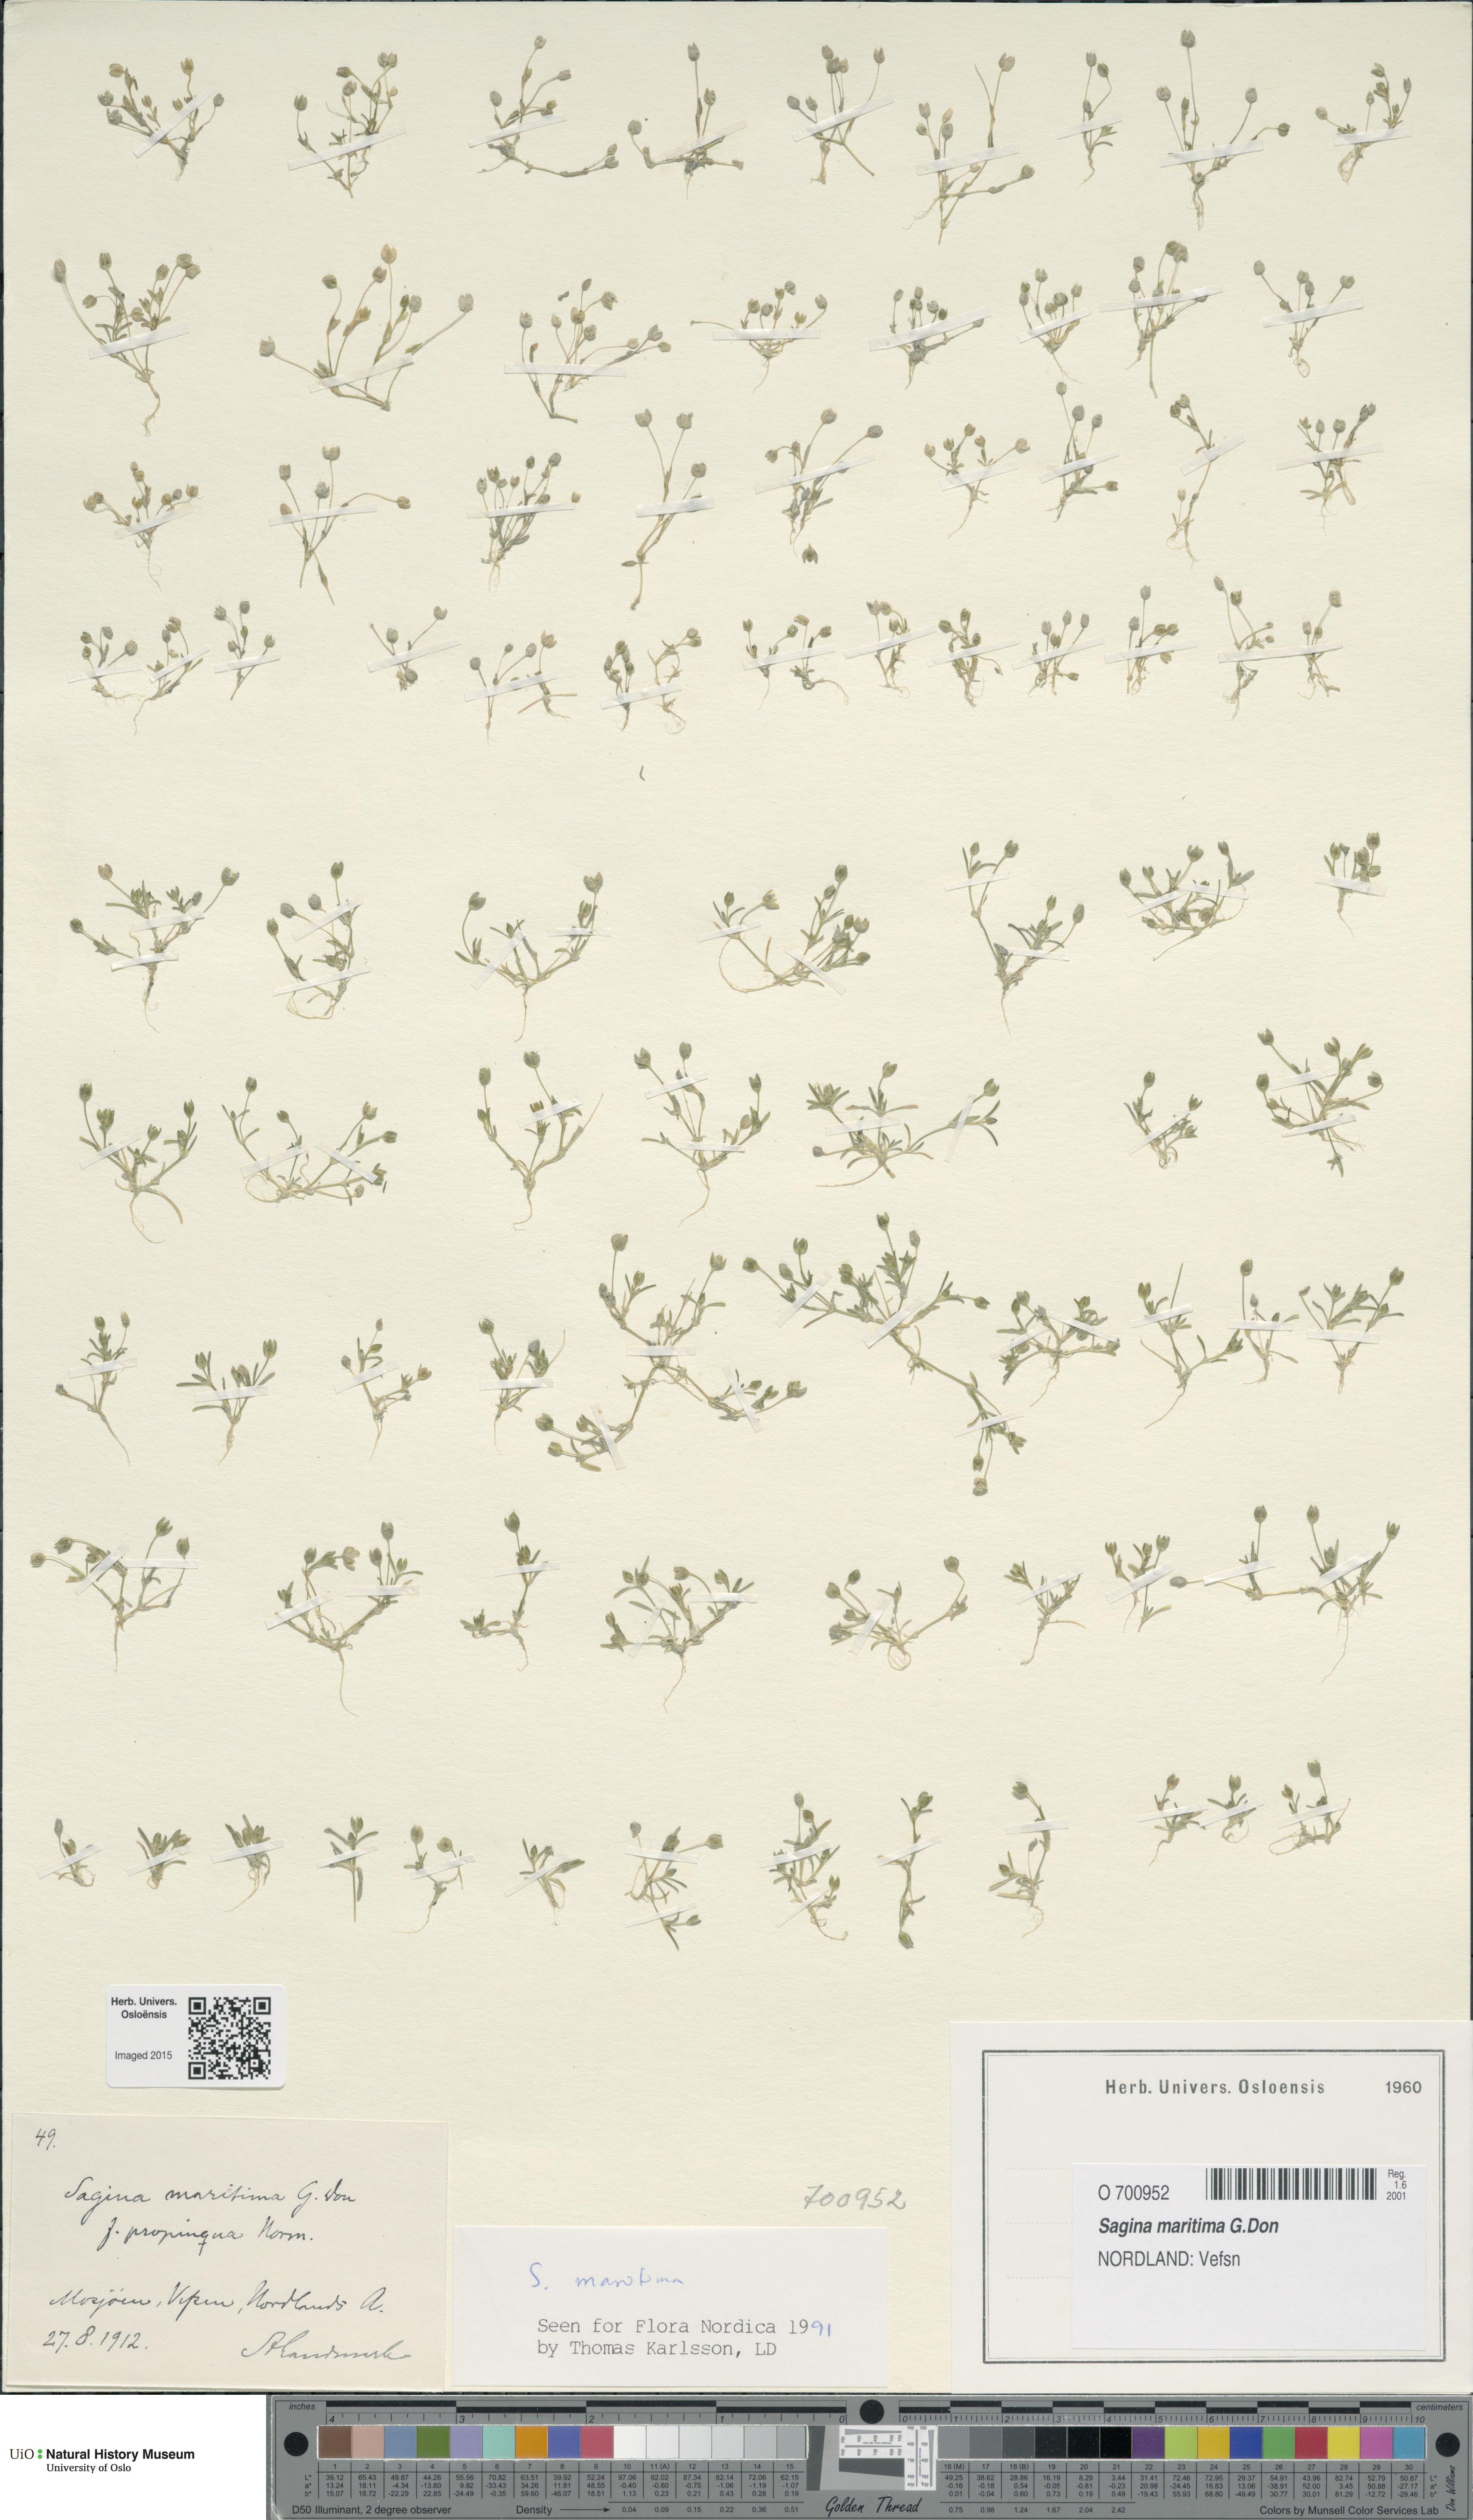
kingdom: Plantae
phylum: Tracheophyta
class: Magnoliopsida
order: Caryophyllales
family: Caryophyllaceae
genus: Sagina
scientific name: Sagina maritima
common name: Sea pearlwort
